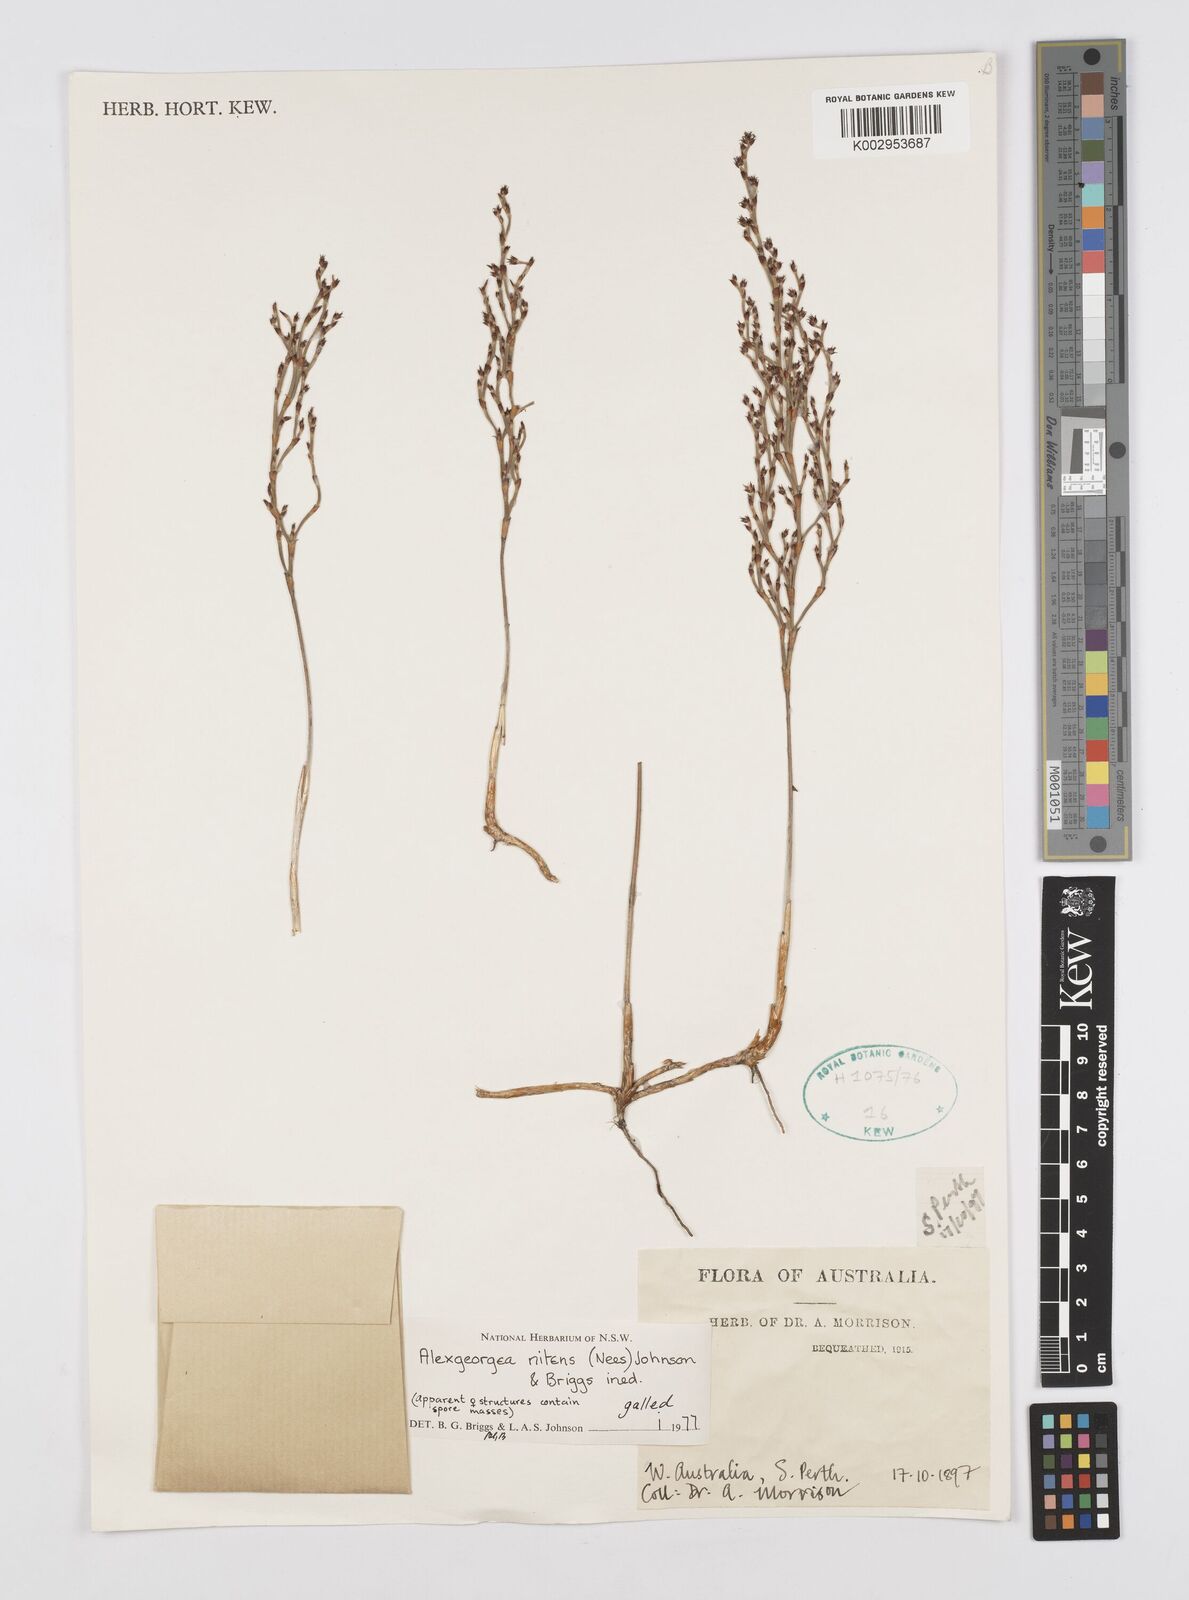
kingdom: Plantae
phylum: Tracheophyta
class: Liliopsida
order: Poales
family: Restionaceae
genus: Alexgeorgea
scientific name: Alexgeorgea nitens
